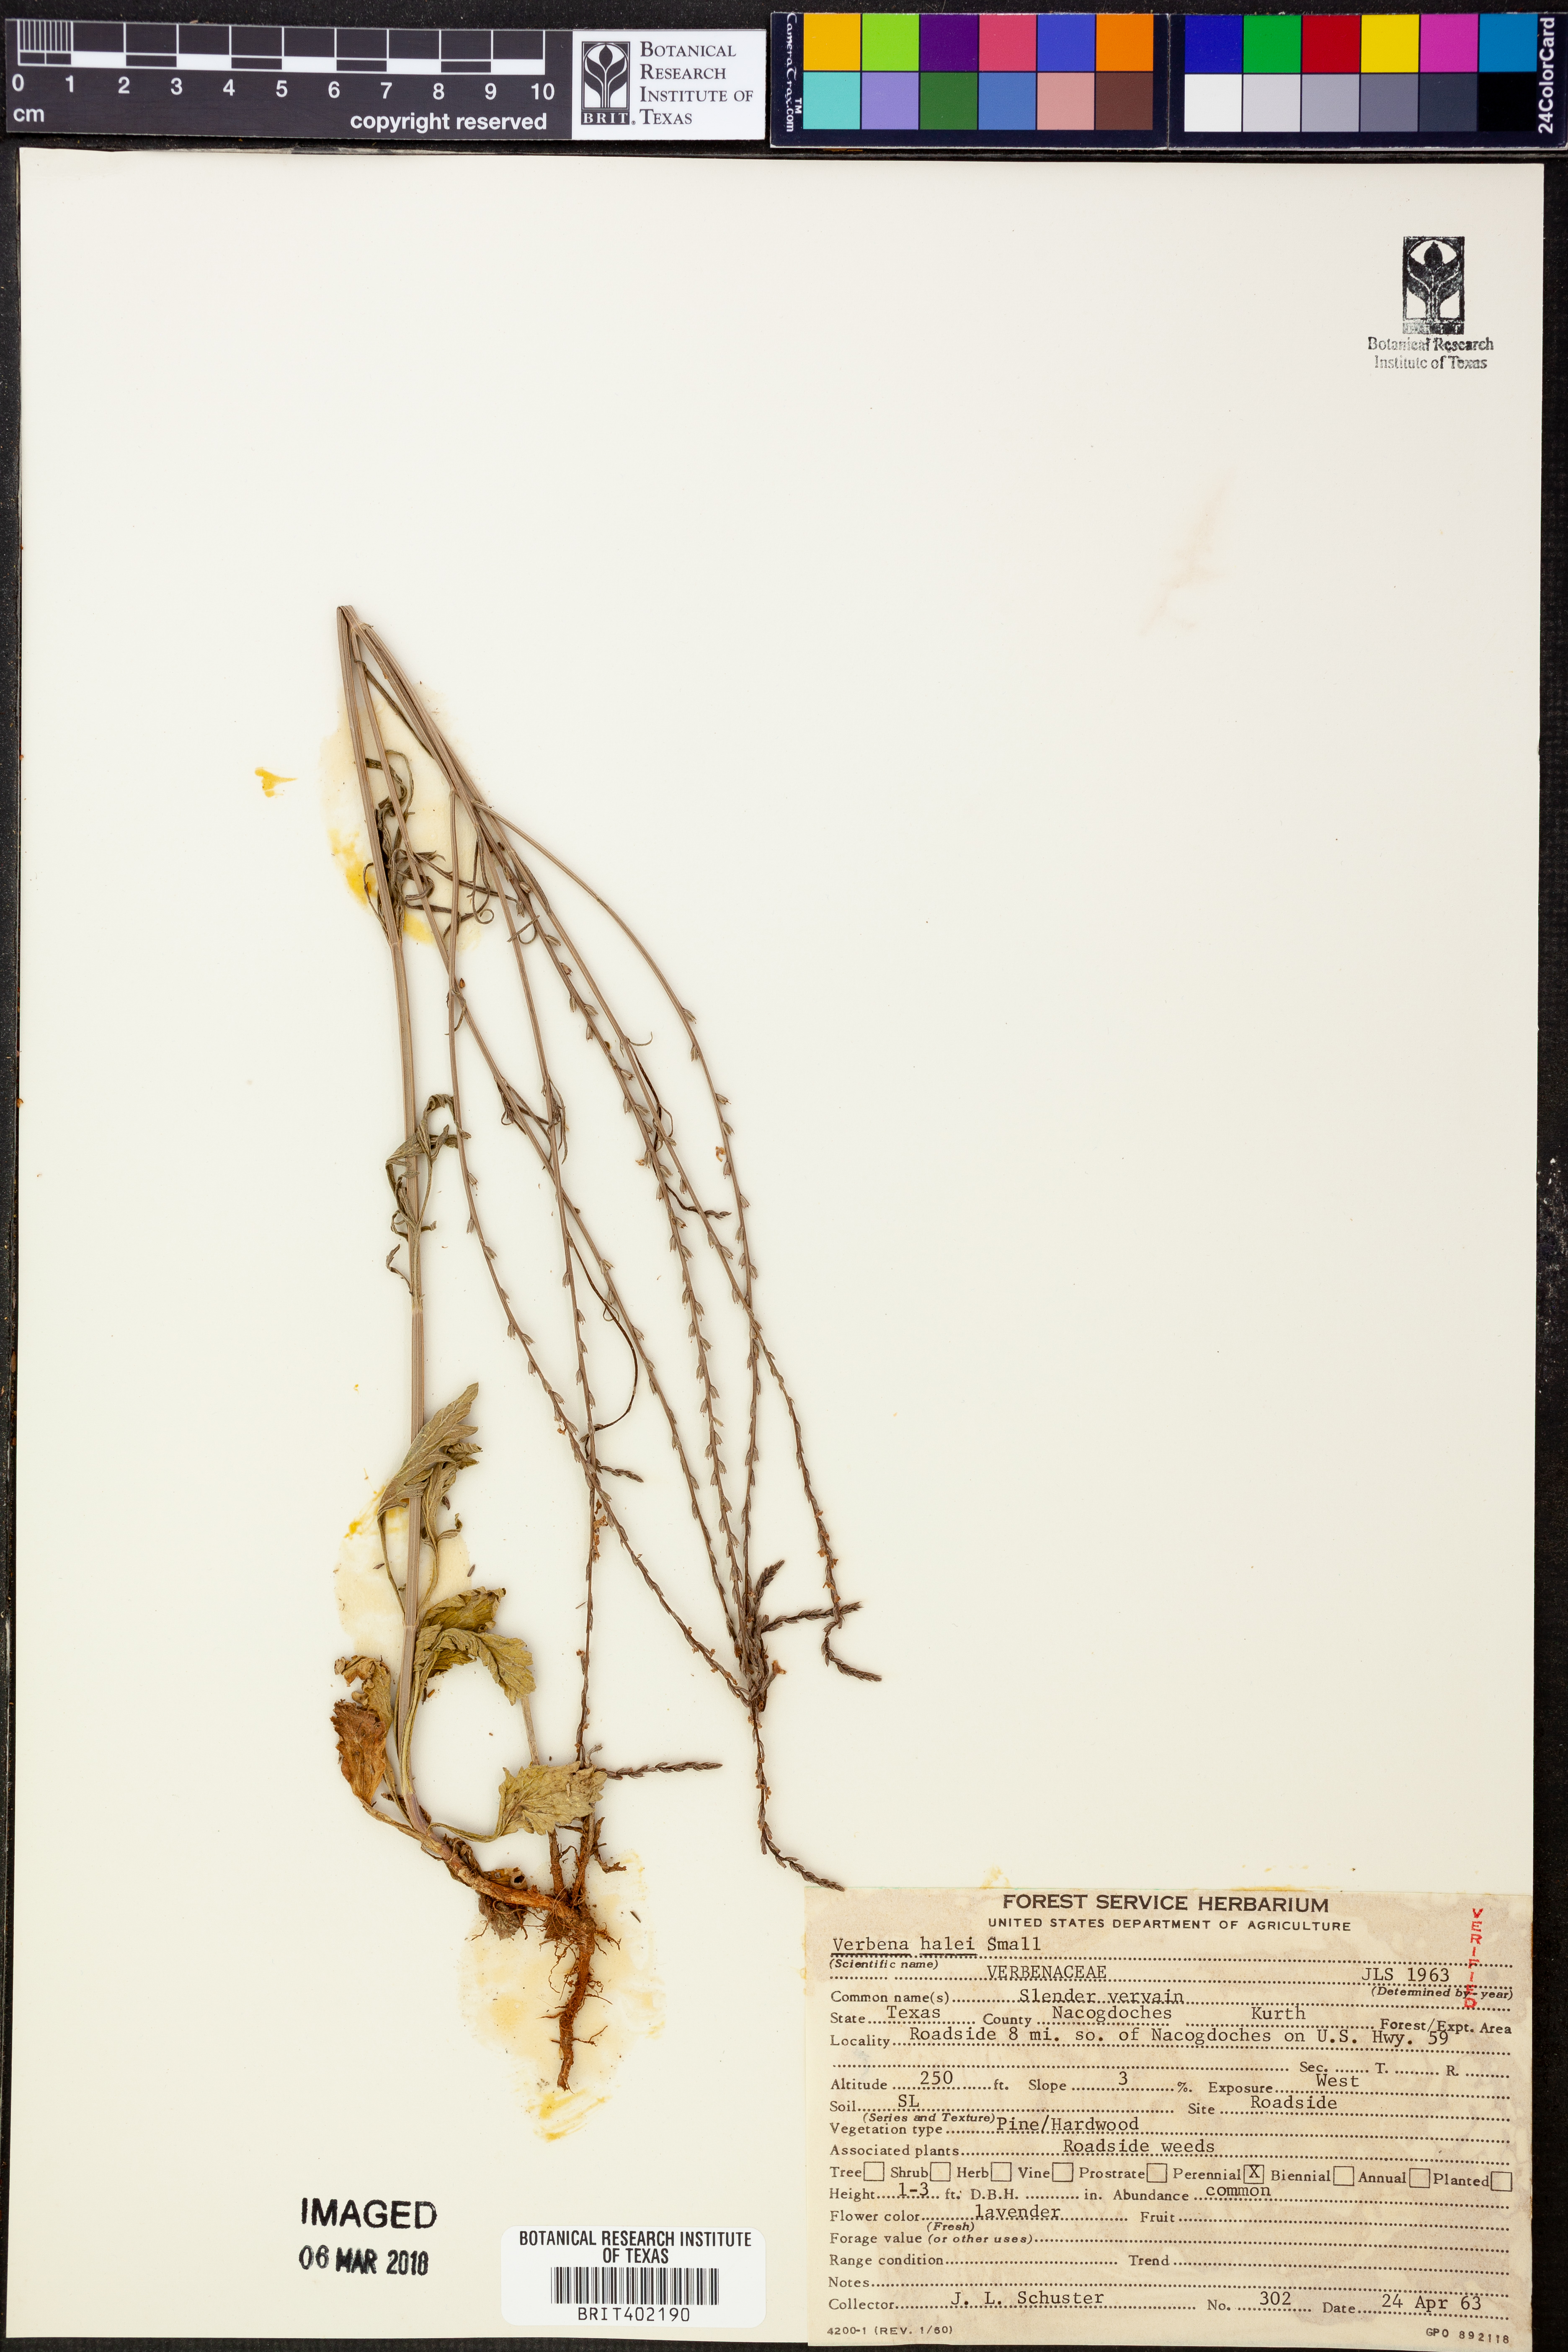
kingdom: Plantae
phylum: Tracheophyta
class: Magnoliopsida
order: Lamiales
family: Verbenaceae
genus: Verbena
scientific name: Verbena halei
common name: Texas vervain
